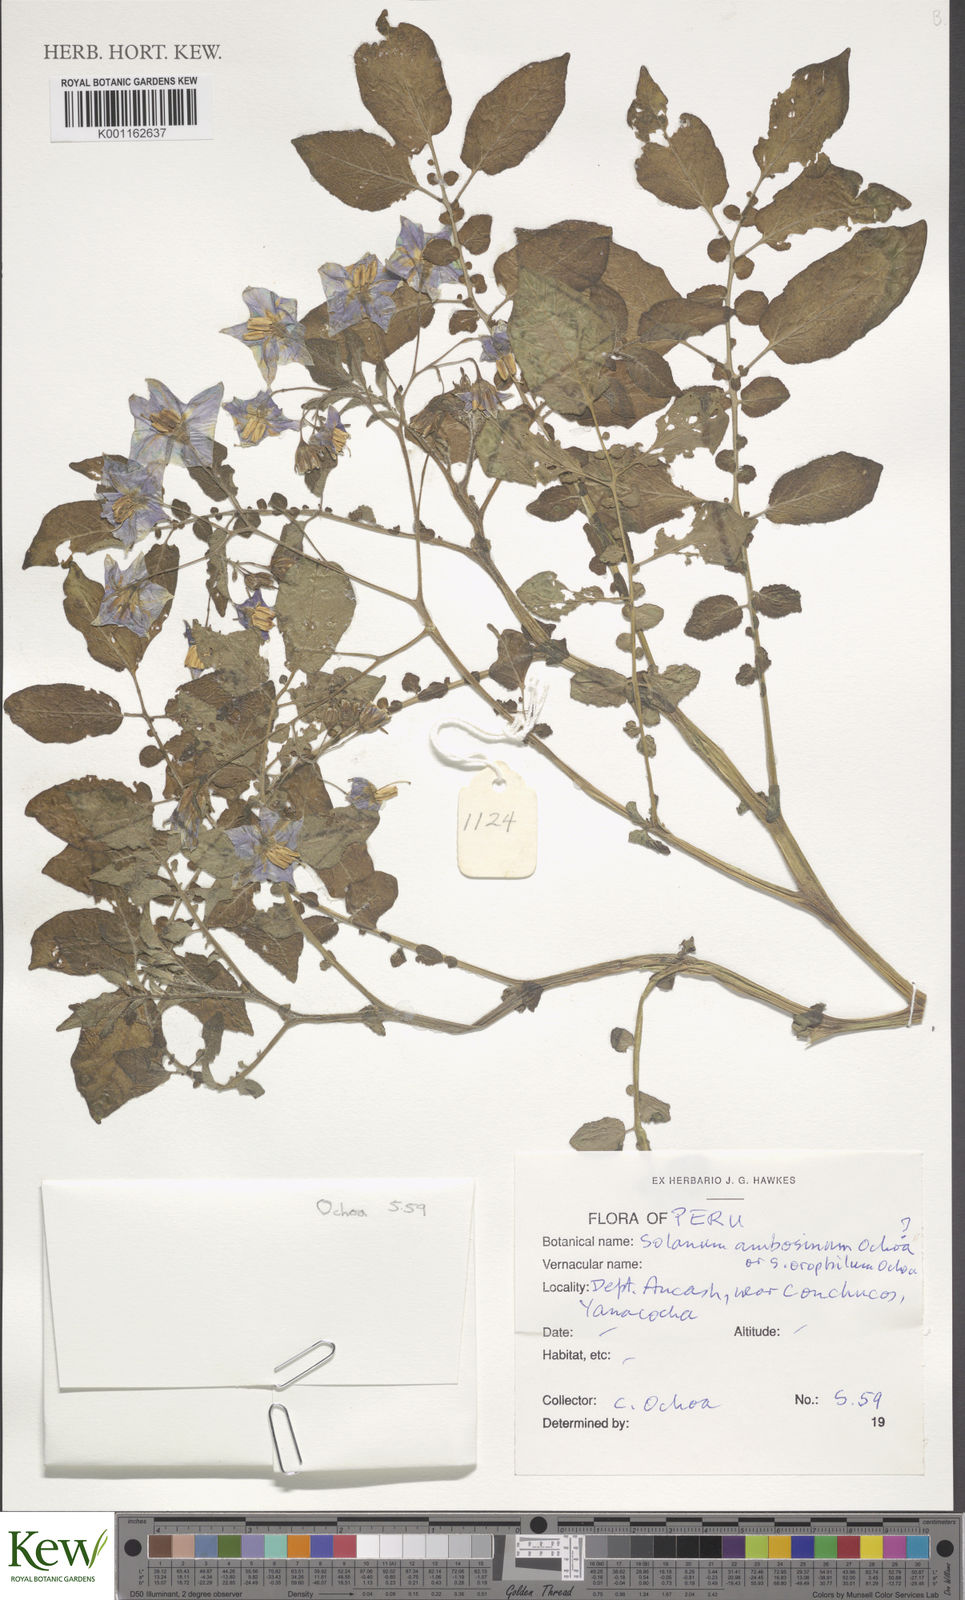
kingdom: Plantae
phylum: Tracheophyta
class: Magnoliopsida
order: Solanales
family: Solanaceae
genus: Solanum
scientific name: Solanum candolleanum
